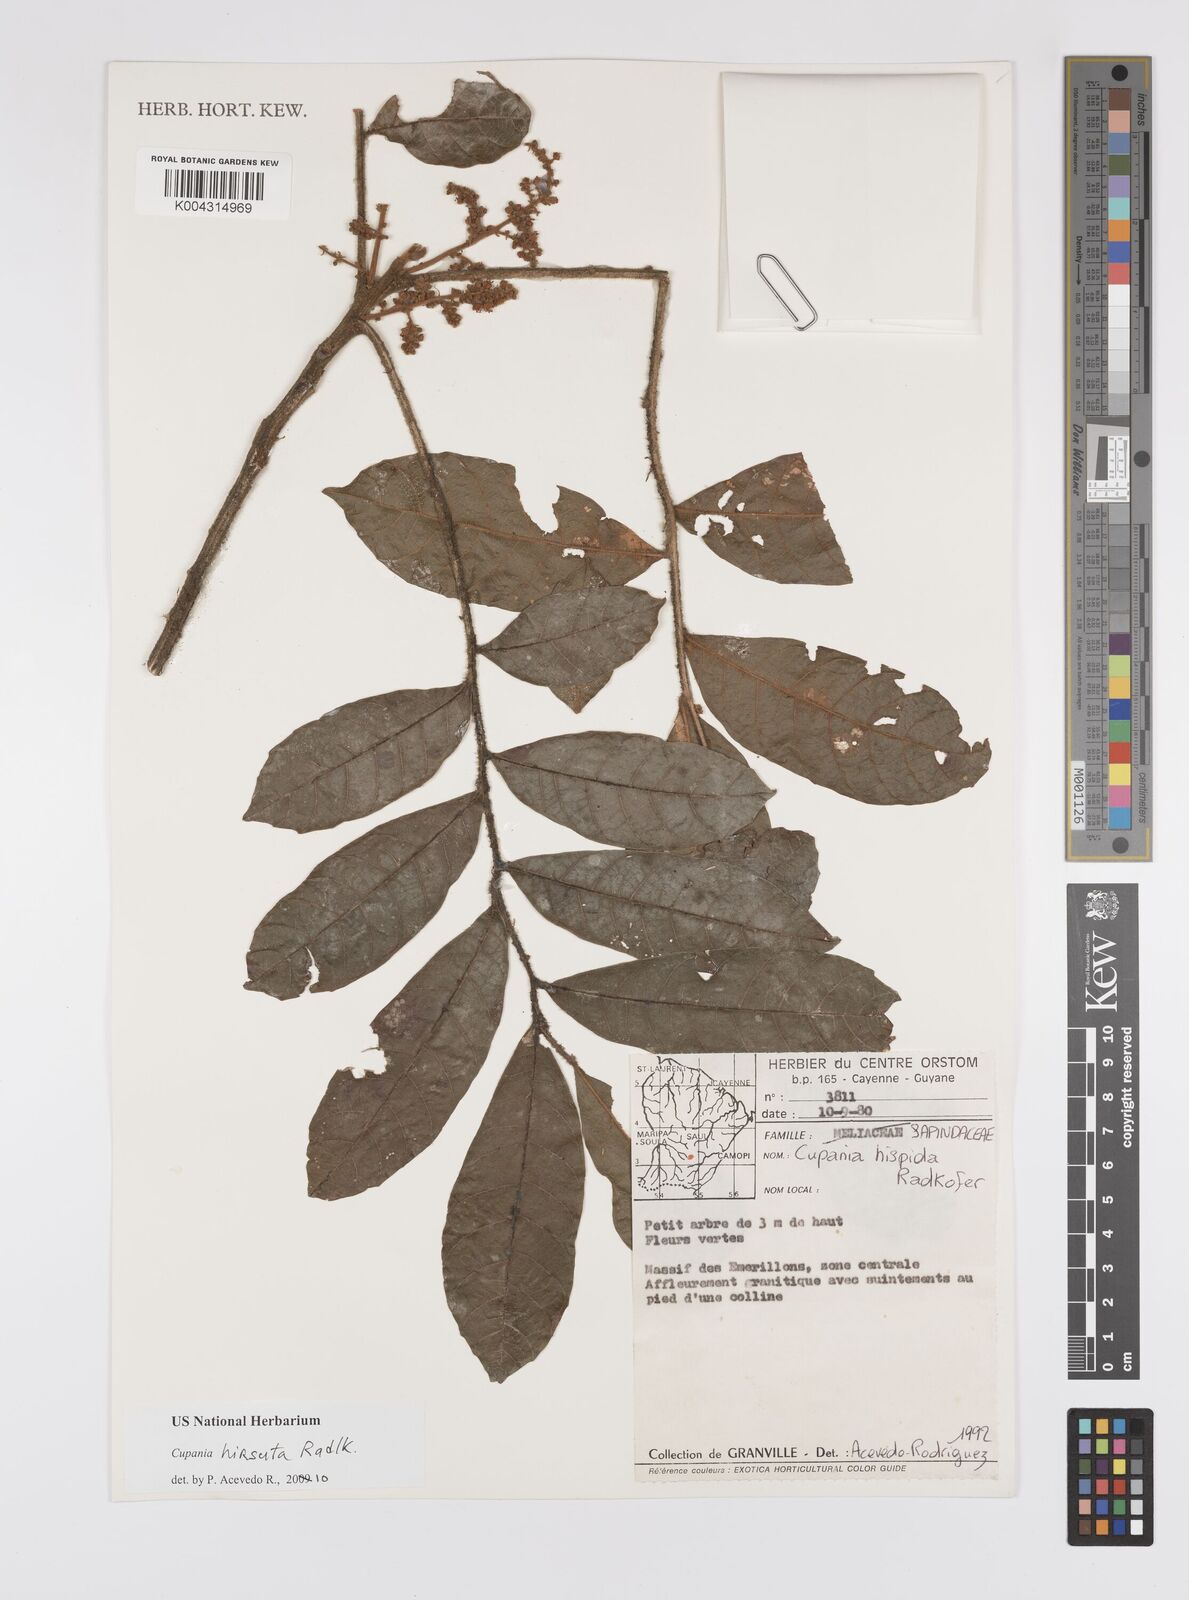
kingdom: Plantae
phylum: Tracheophyta
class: Magnoliopsida
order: Sapindales
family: Sapindaceae
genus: Cupania
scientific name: Cupania hirsuta
